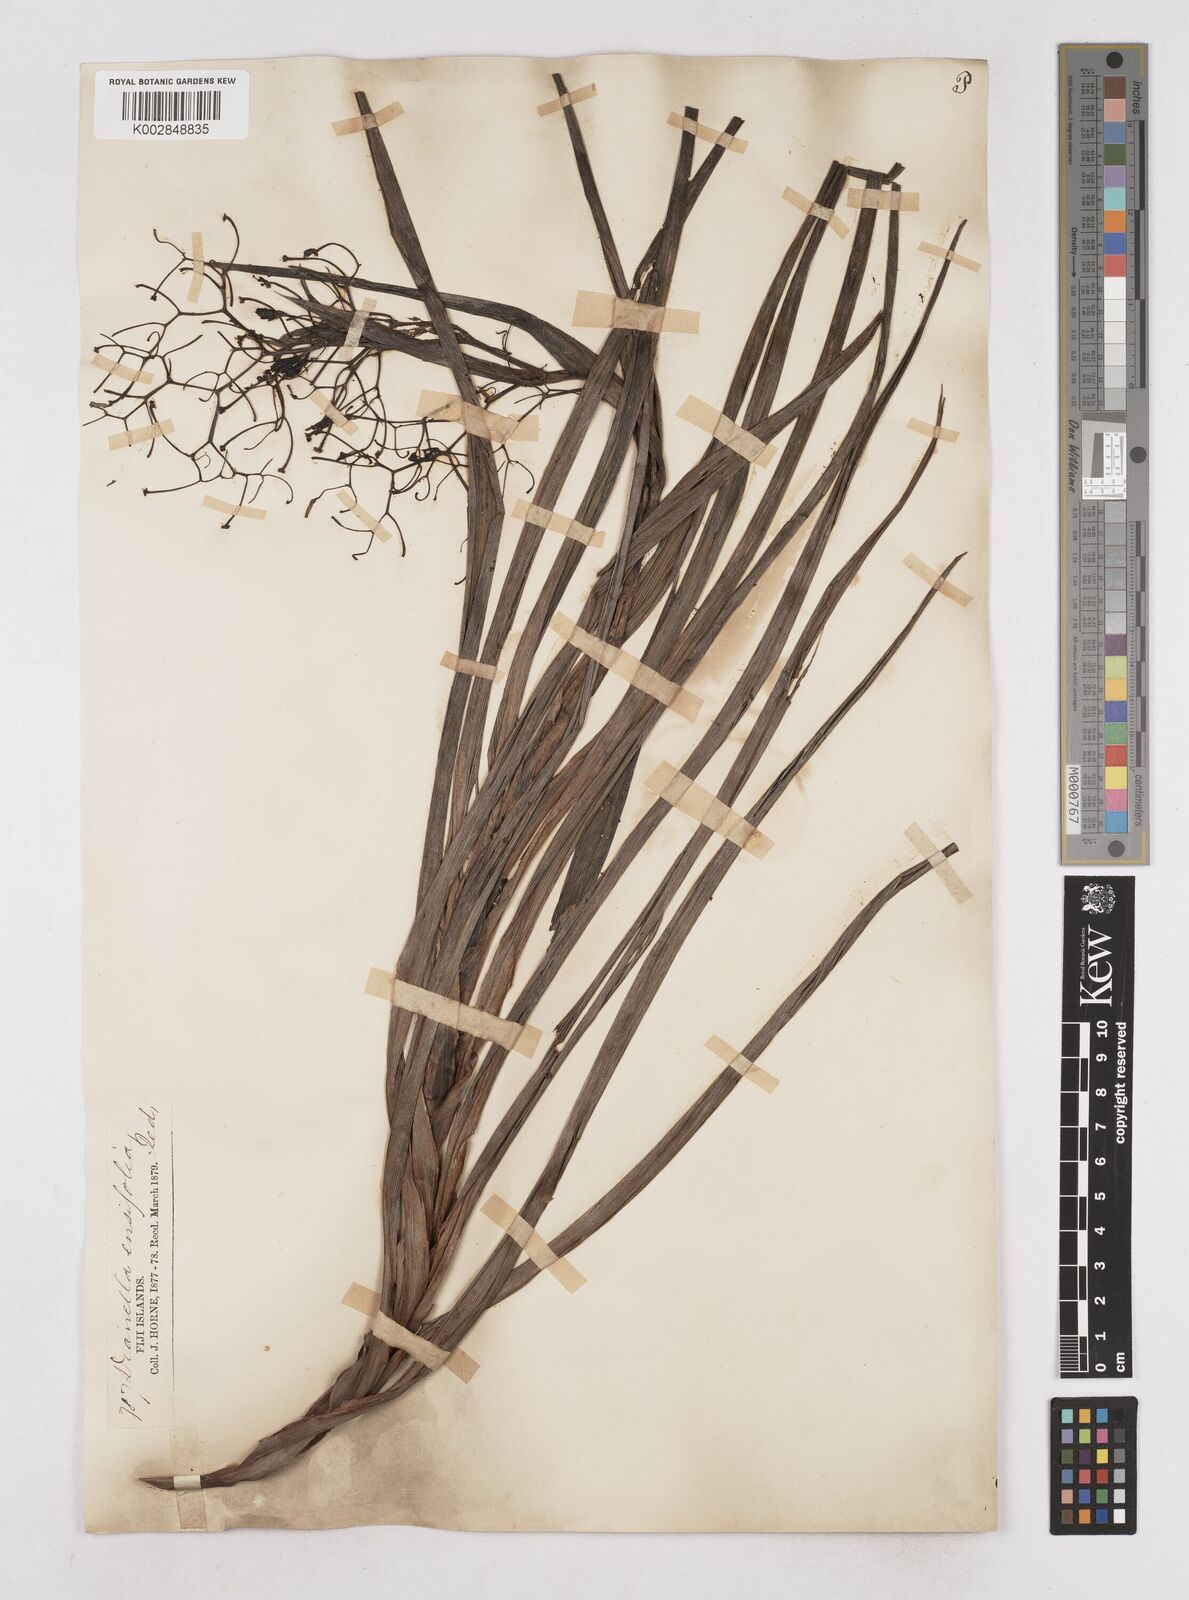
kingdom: Plantae
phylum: Tracheophyta
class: Liliopsida
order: Asparagales
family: Asphodelaceae
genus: Dianella
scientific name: Dianella ensifolia
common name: New zealand lilyplant
